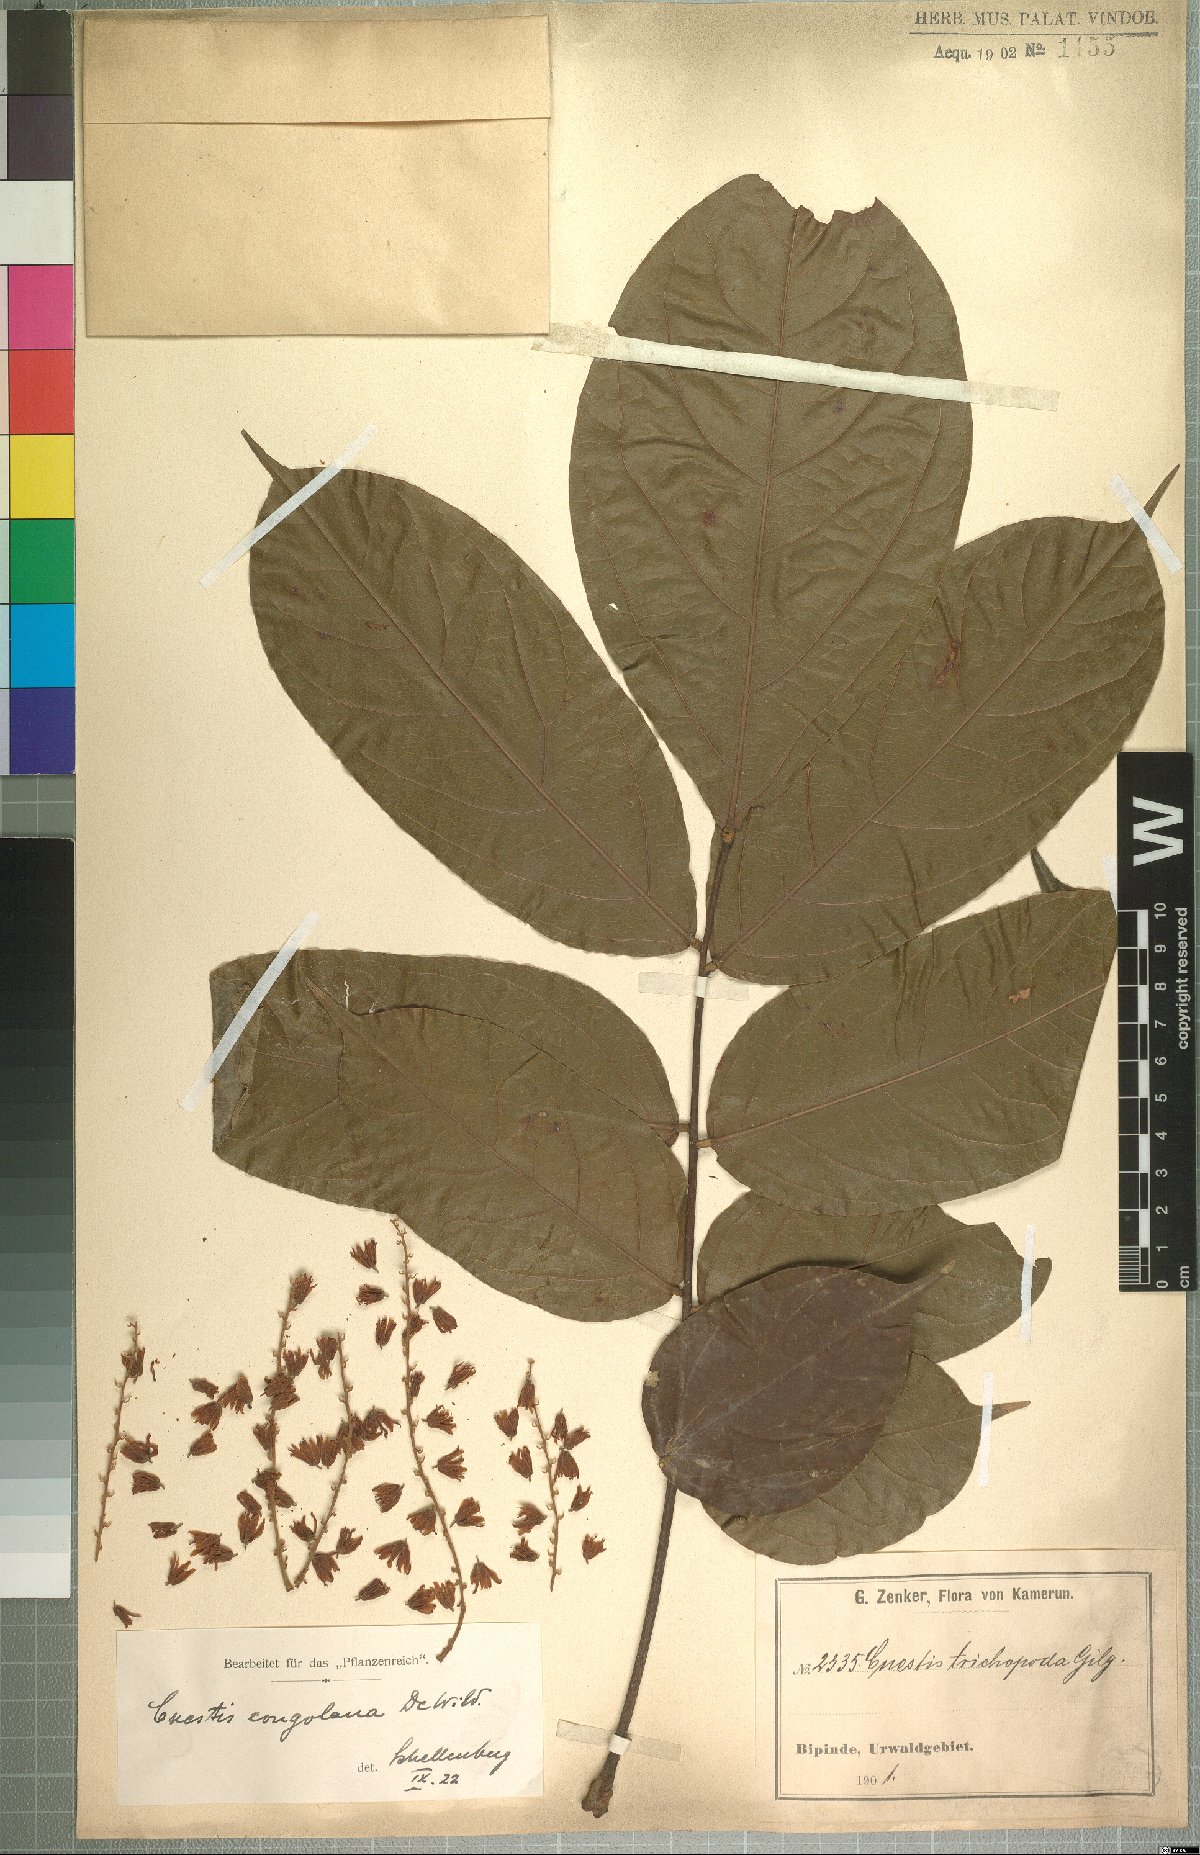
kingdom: Plantae
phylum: Tracheophyta
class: Magnoliopsida
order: Oxalidales
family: Connaraceae
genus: Cnestis
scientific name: Cnestis corniculata
